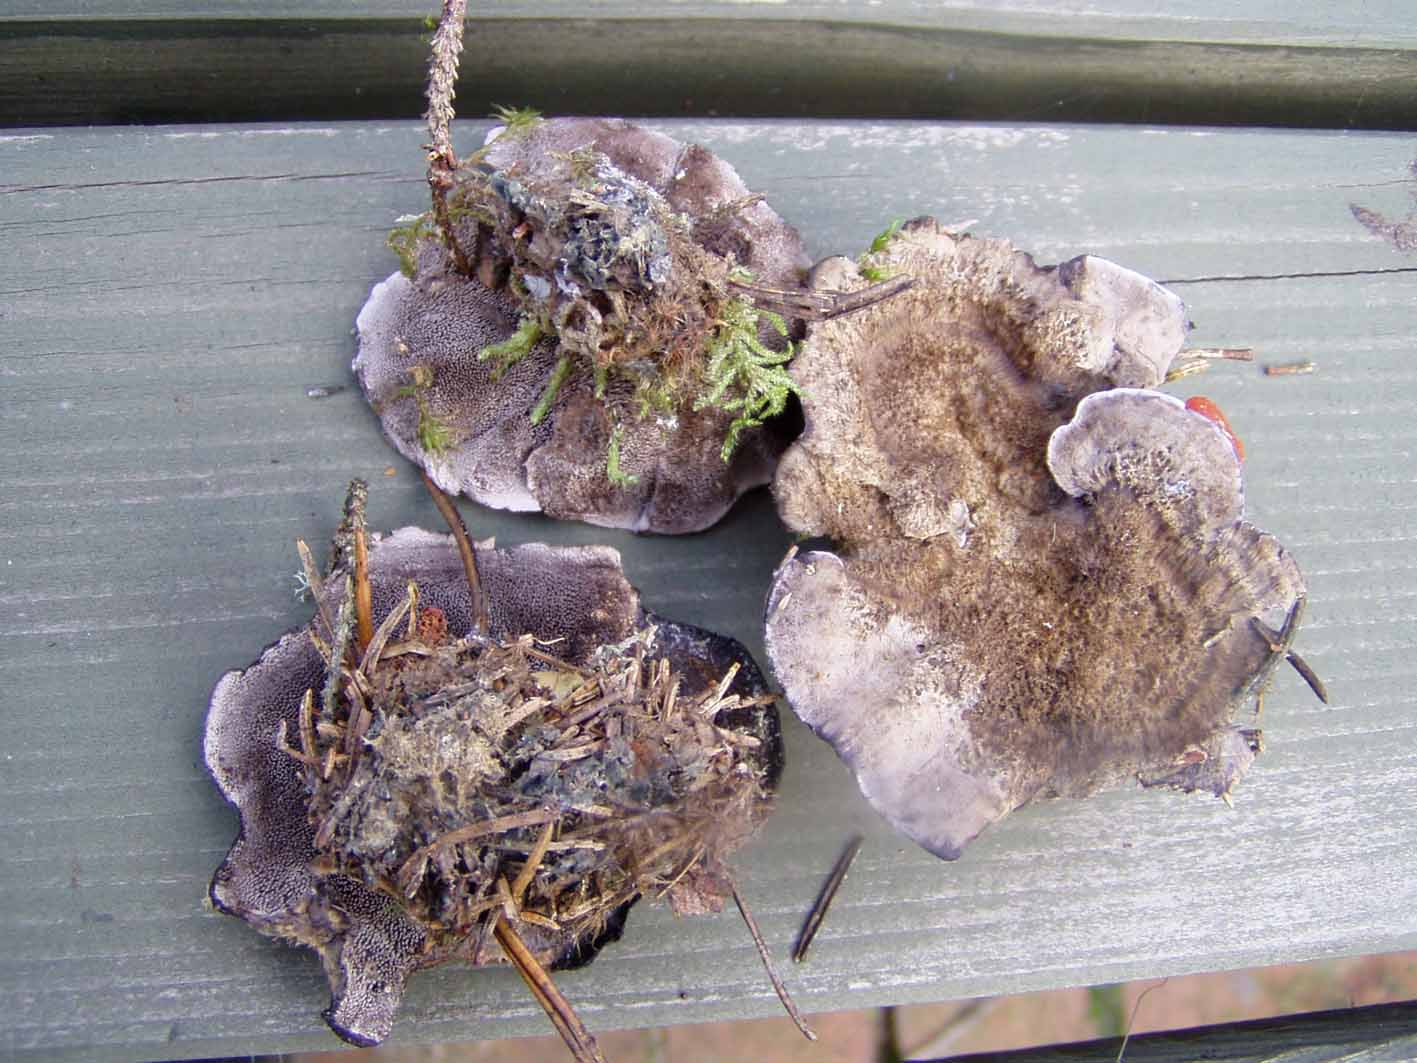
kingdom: Fungi
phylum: Basidiomycota
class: Agaricomycetes
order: Thelephorales
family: Thelephoraceae
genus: Phellodon
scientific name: Phellodon
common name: mørk duftpigsvamp
